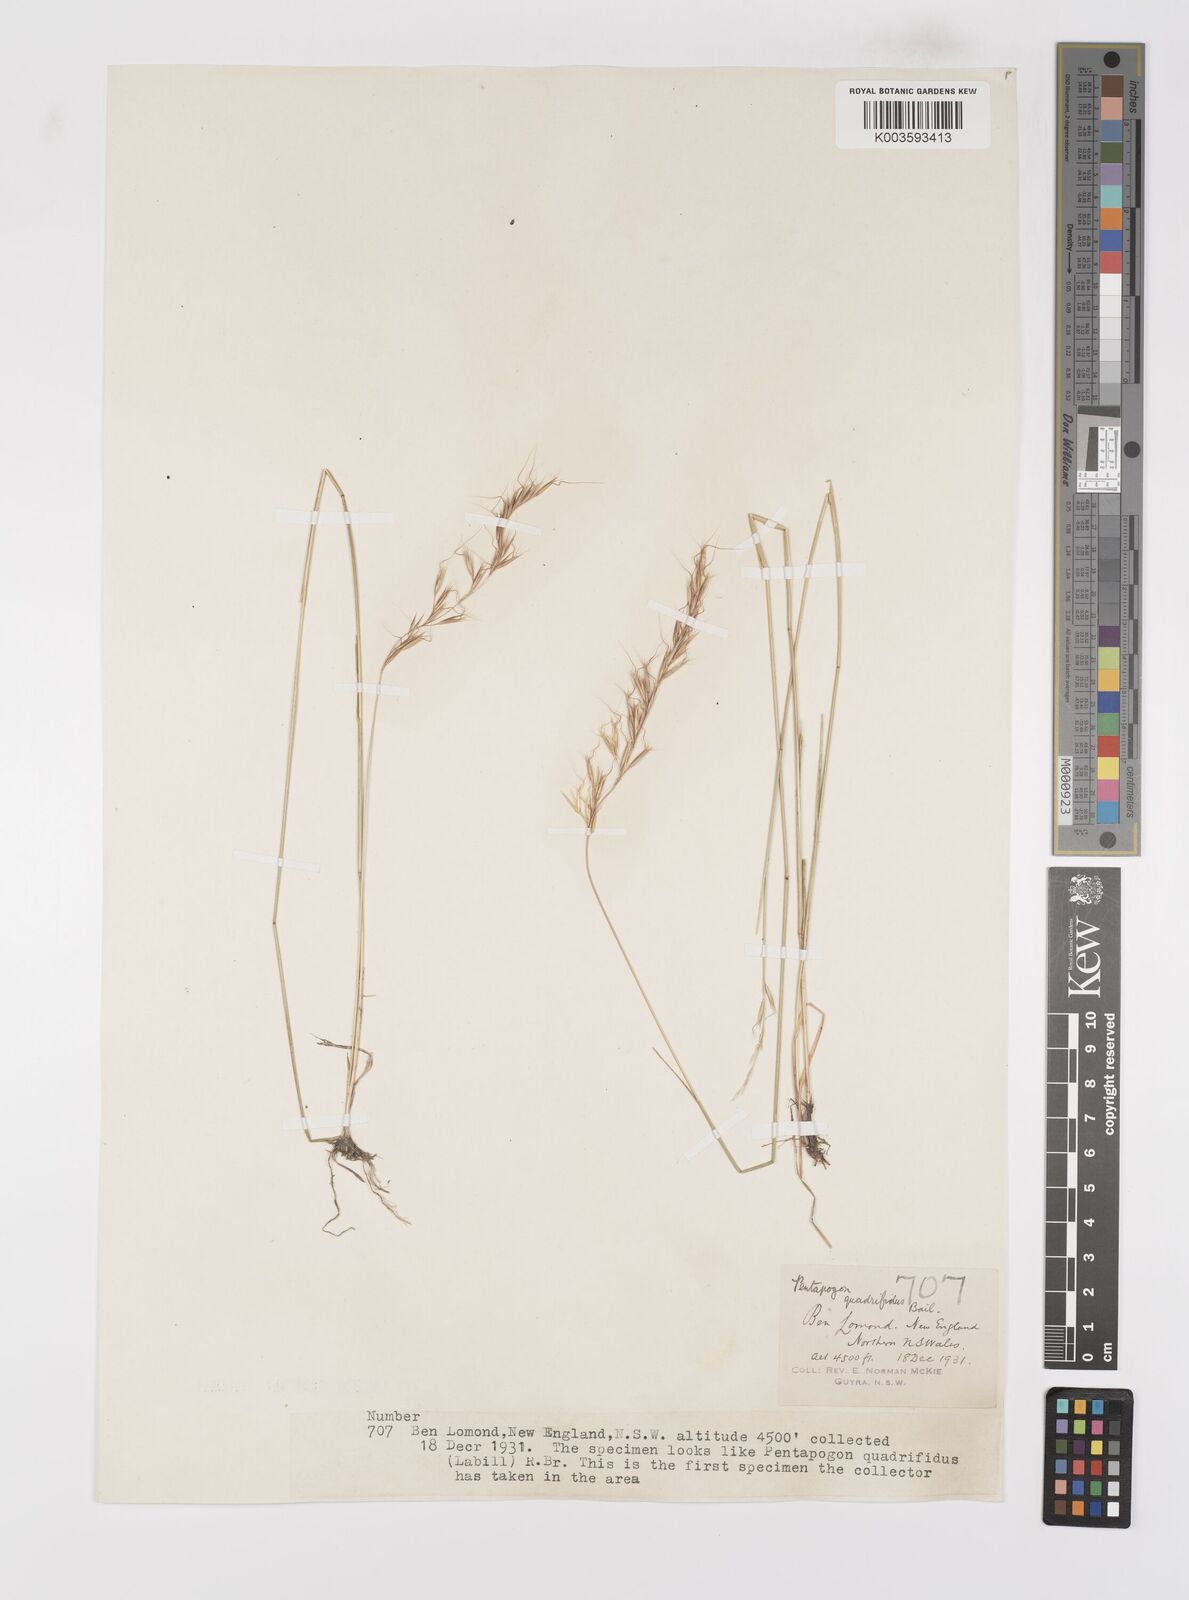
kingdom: Plantae
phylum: Tracheophyta
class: Liliopsida
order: Poales
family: Poaceae
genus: Pentapogon
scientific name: Pentapogon quadrifidus
